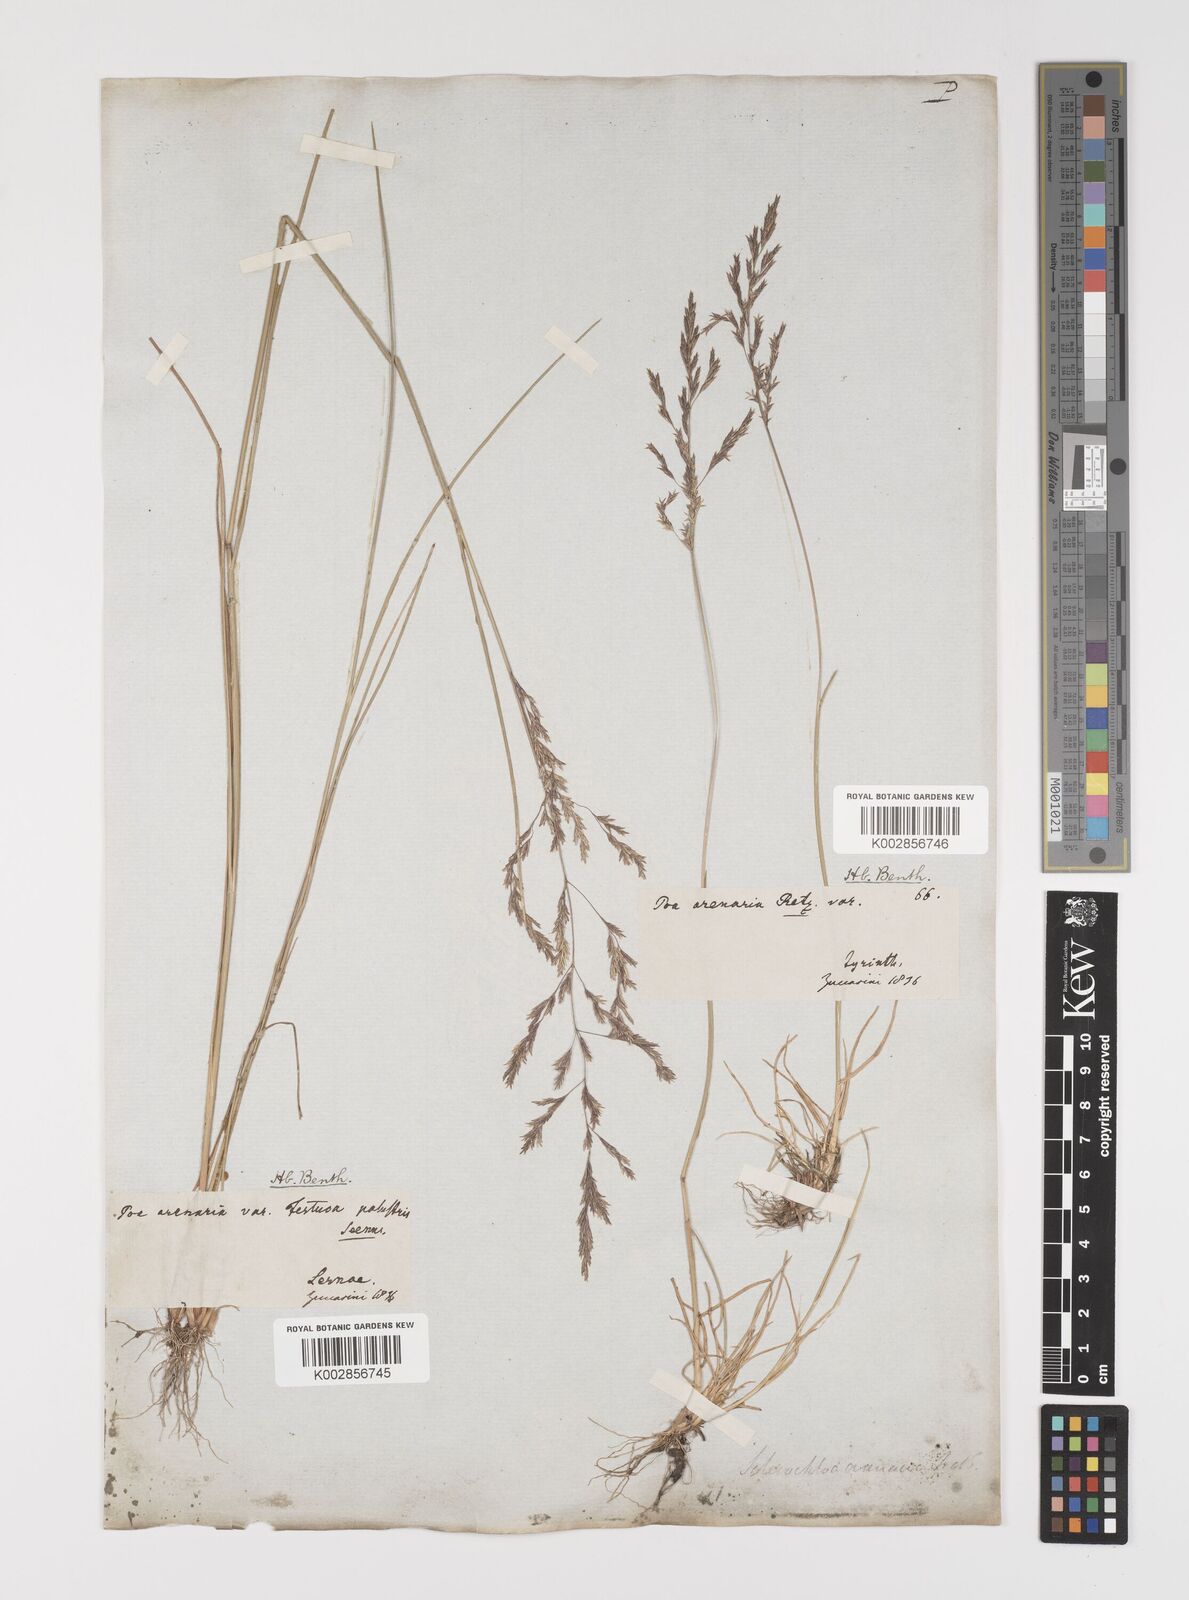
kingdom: Plantae
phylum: Tracheophyta
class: Liliopsida
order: Poales
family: Poaceae
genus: Puccinellia
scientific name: Puccinellia
